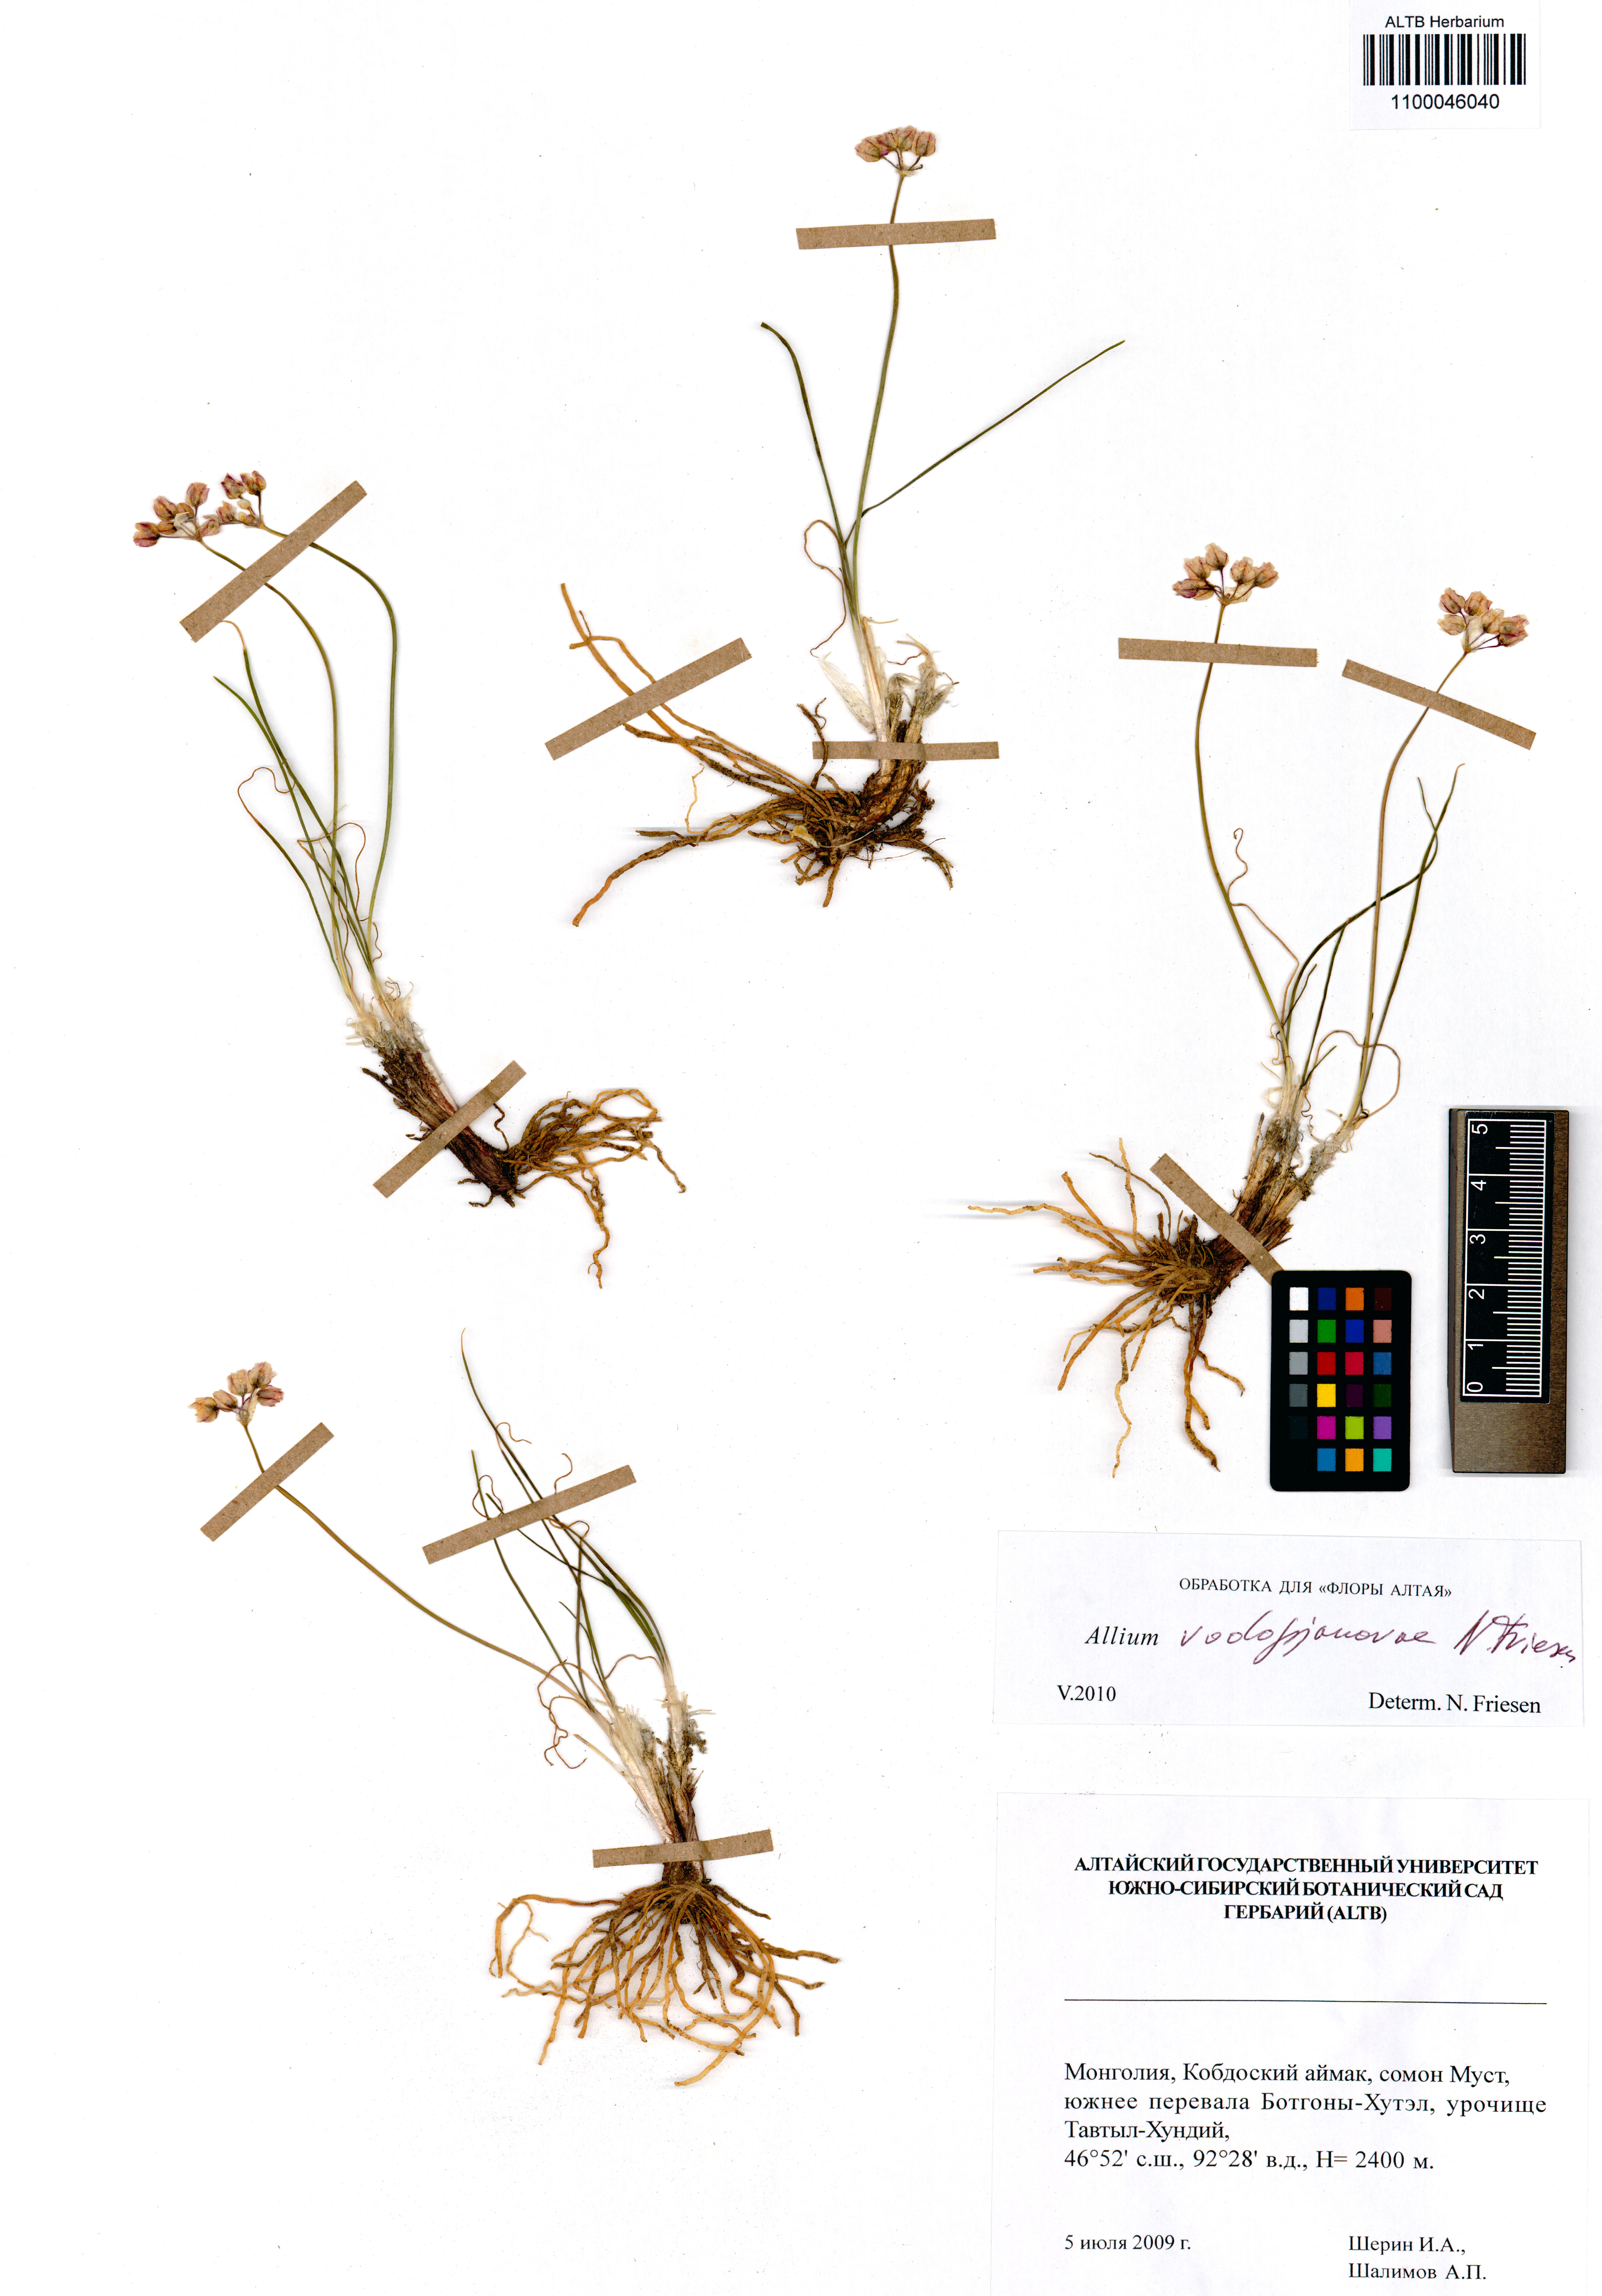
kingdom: Plantae
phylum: Tracheophyta
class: Liliopsida
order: Asparagales
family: Amaryllidaceae
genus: Allium
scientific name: Allium vodopjanovae
